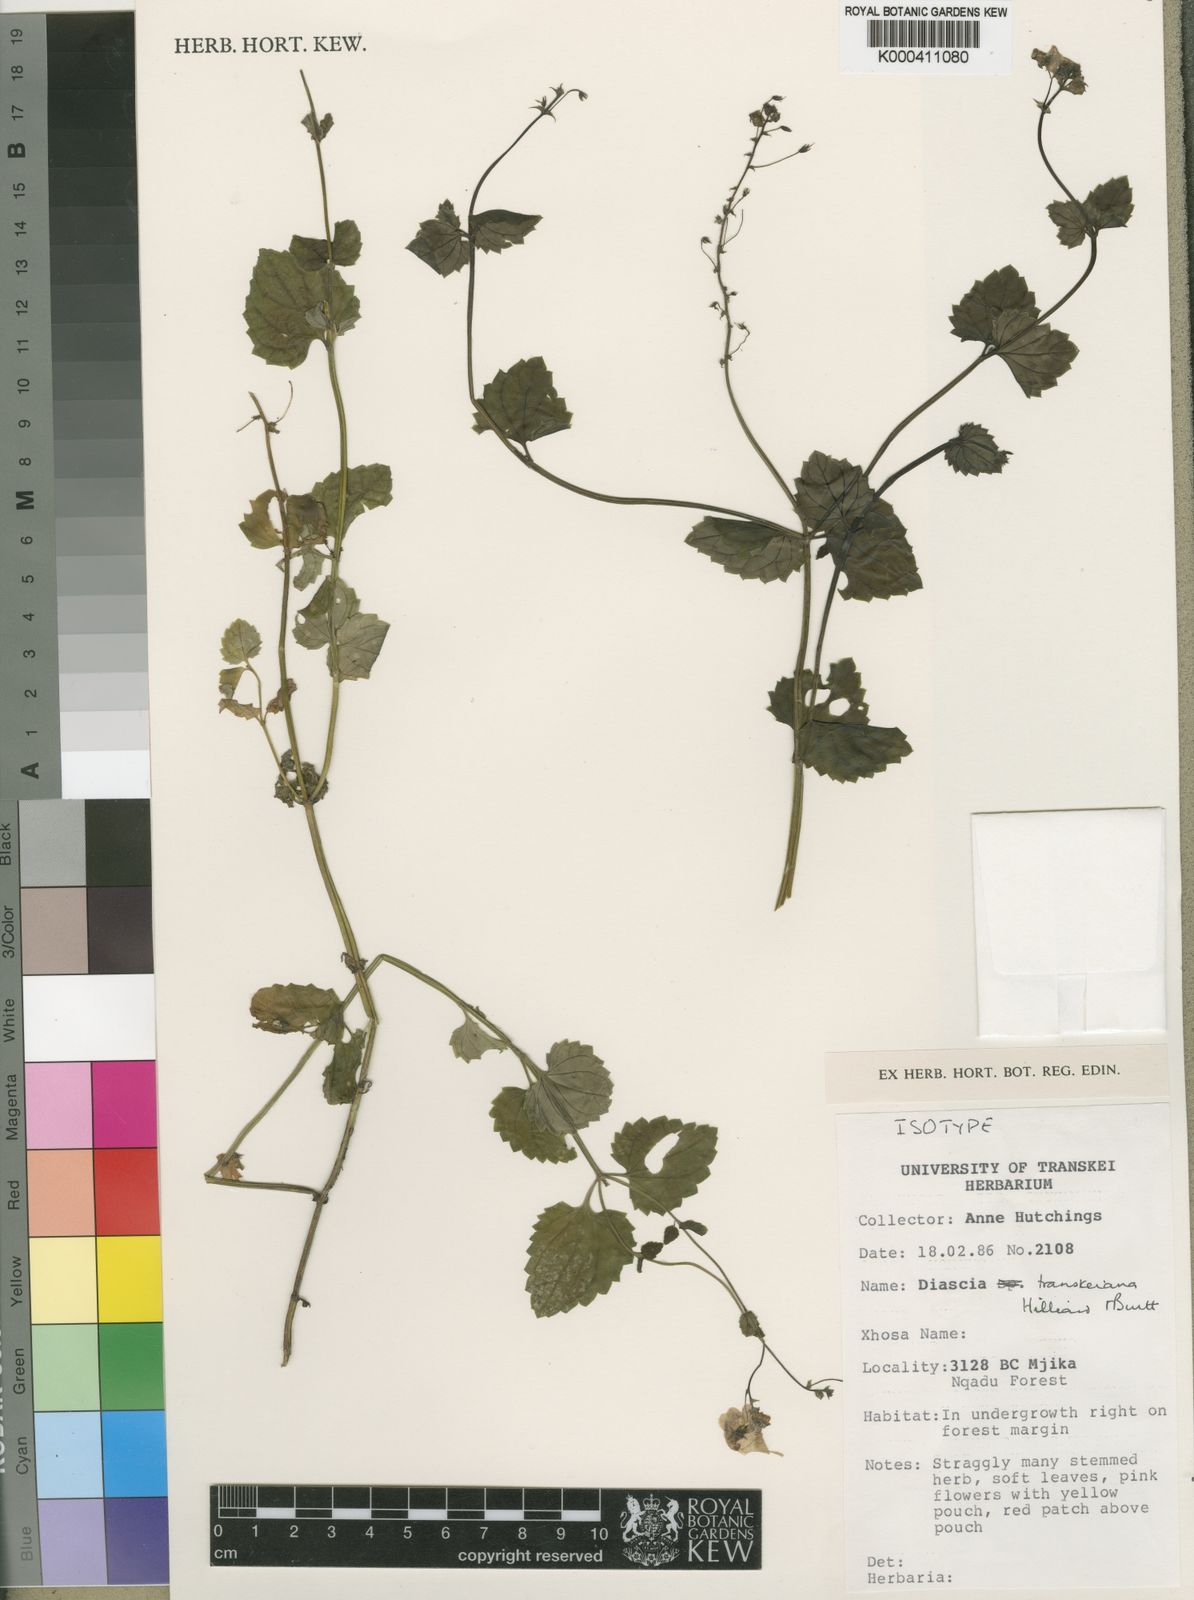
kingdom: Plantae
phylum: Tracheophyta
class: Magnoliopsida
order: Lamiales
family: Scrophulariaceae
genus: Diascia
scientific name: Diascia mollis
